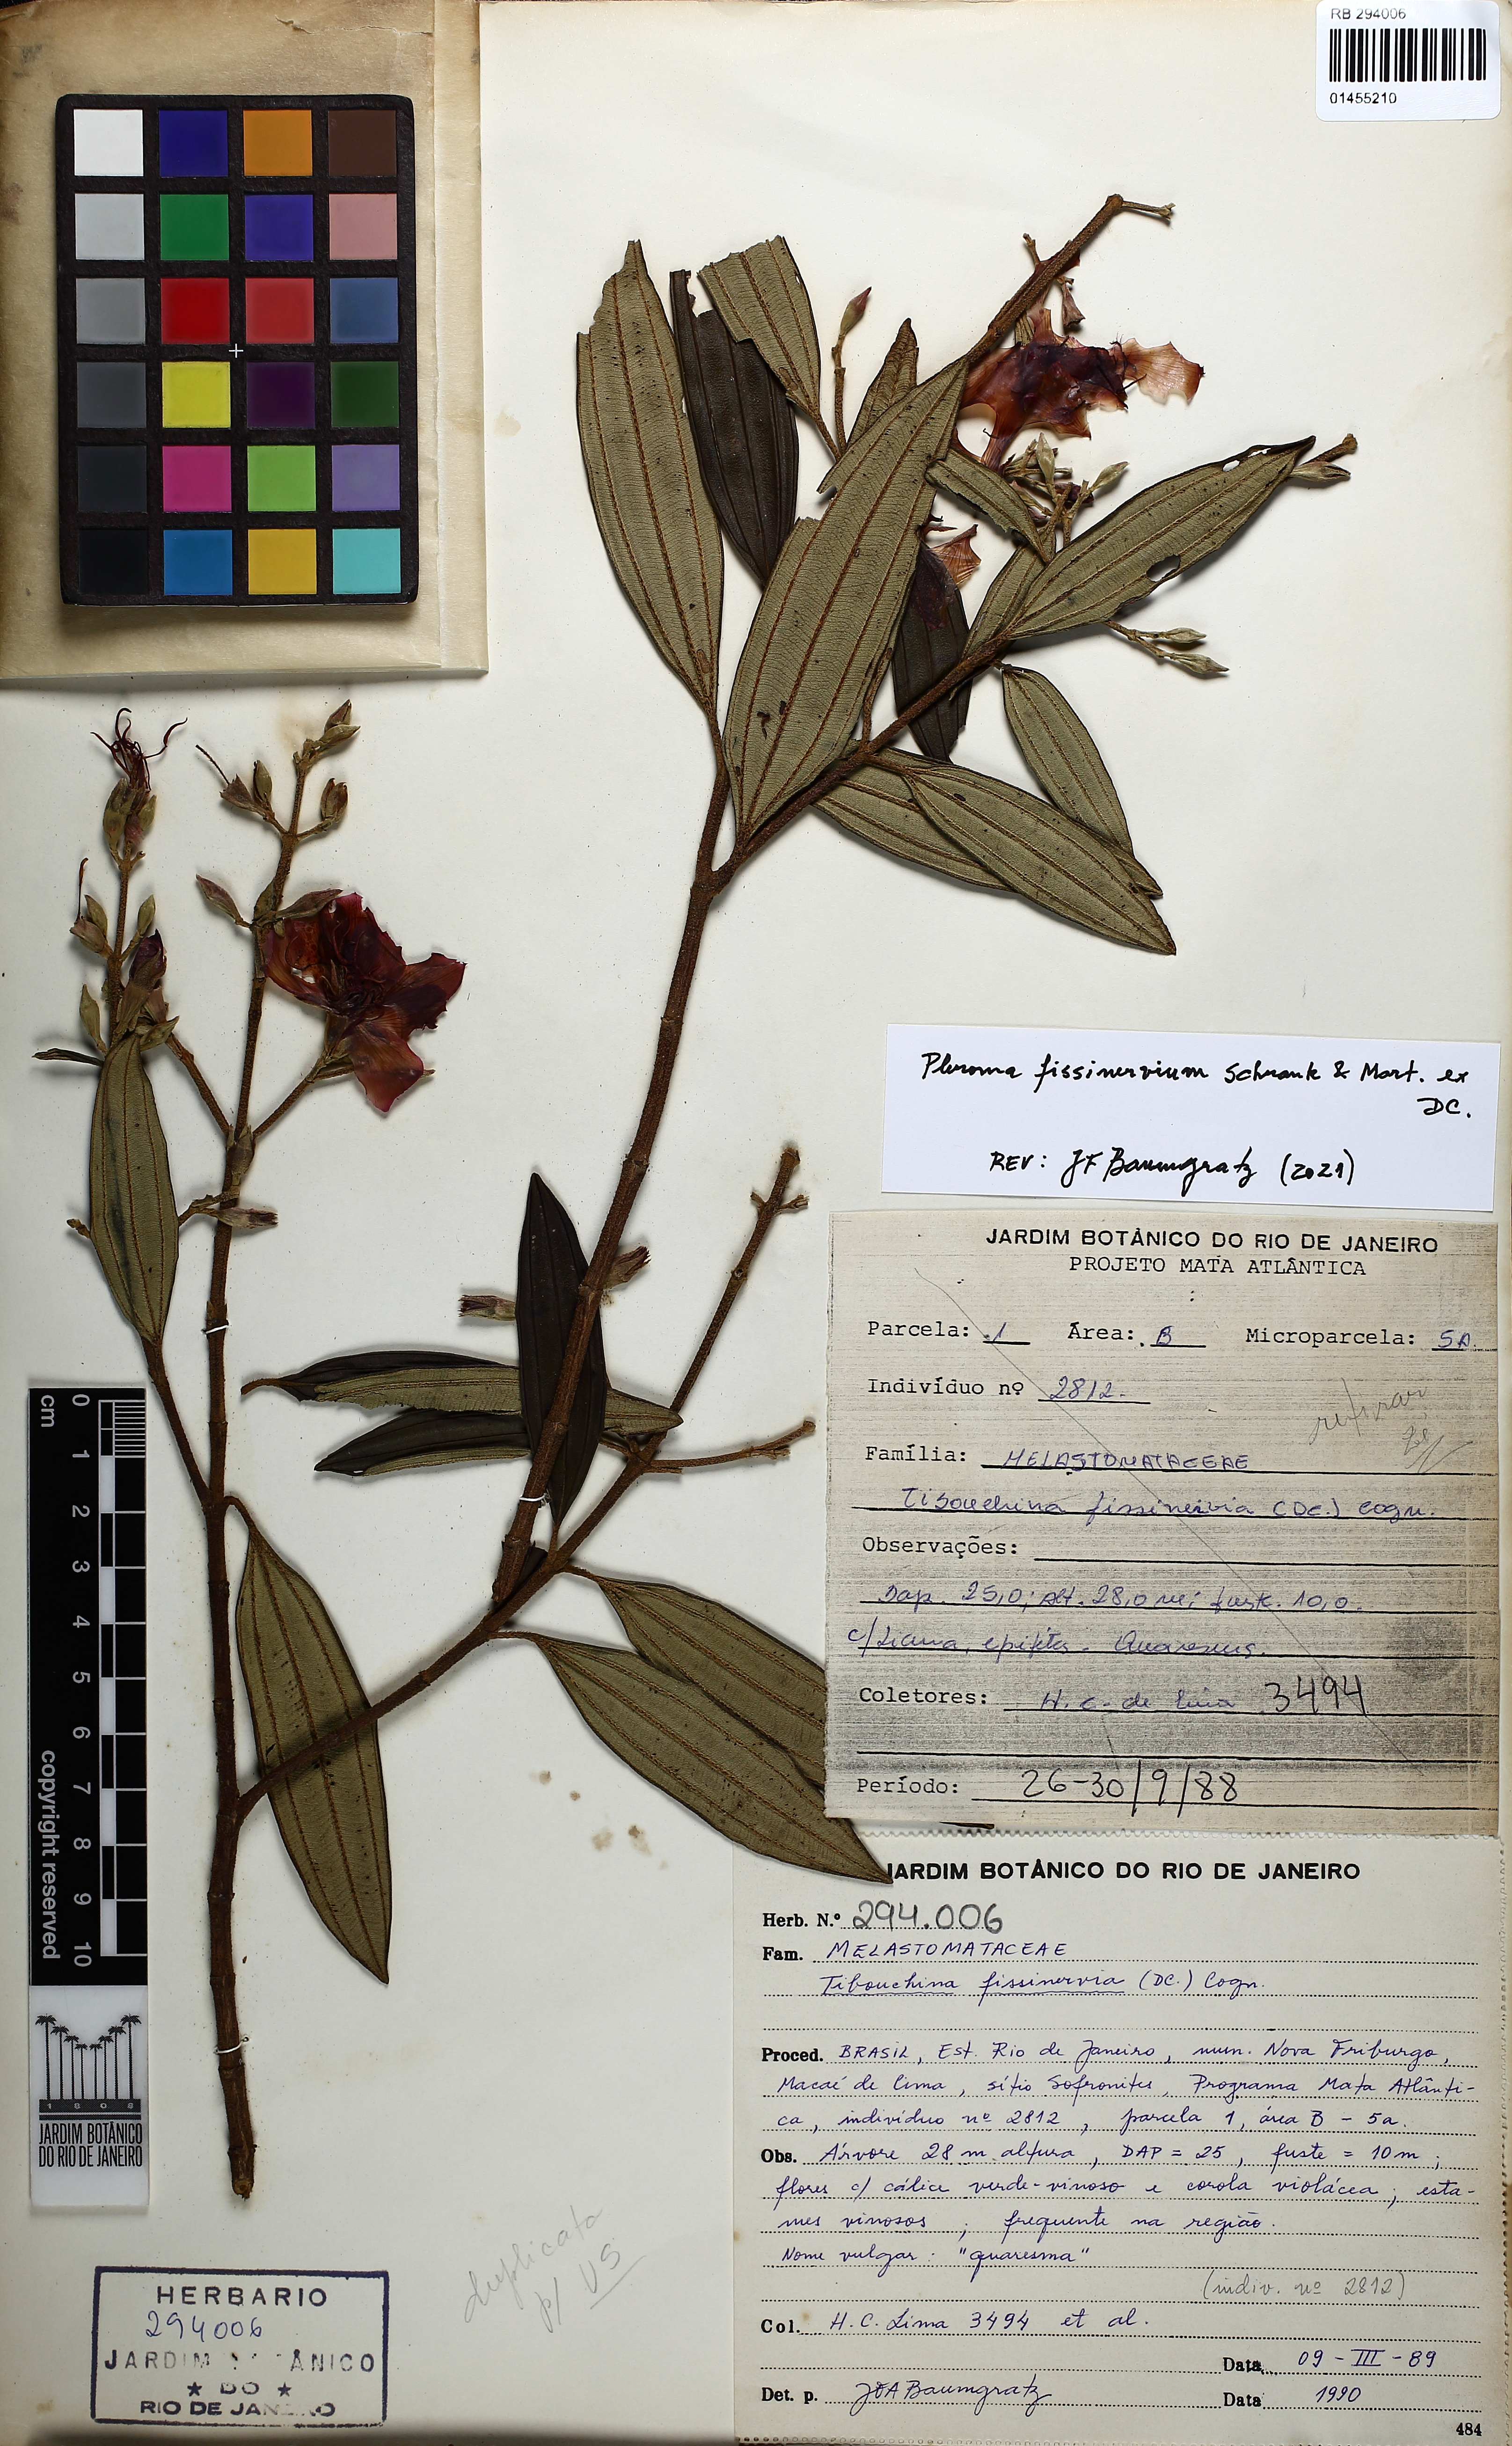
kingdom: Plantae
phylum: Tracheophyta
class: Magnoliopsida
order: Myrtales
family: Melastomataceae
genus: Pleroma
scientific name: Pleroma fissinervium
